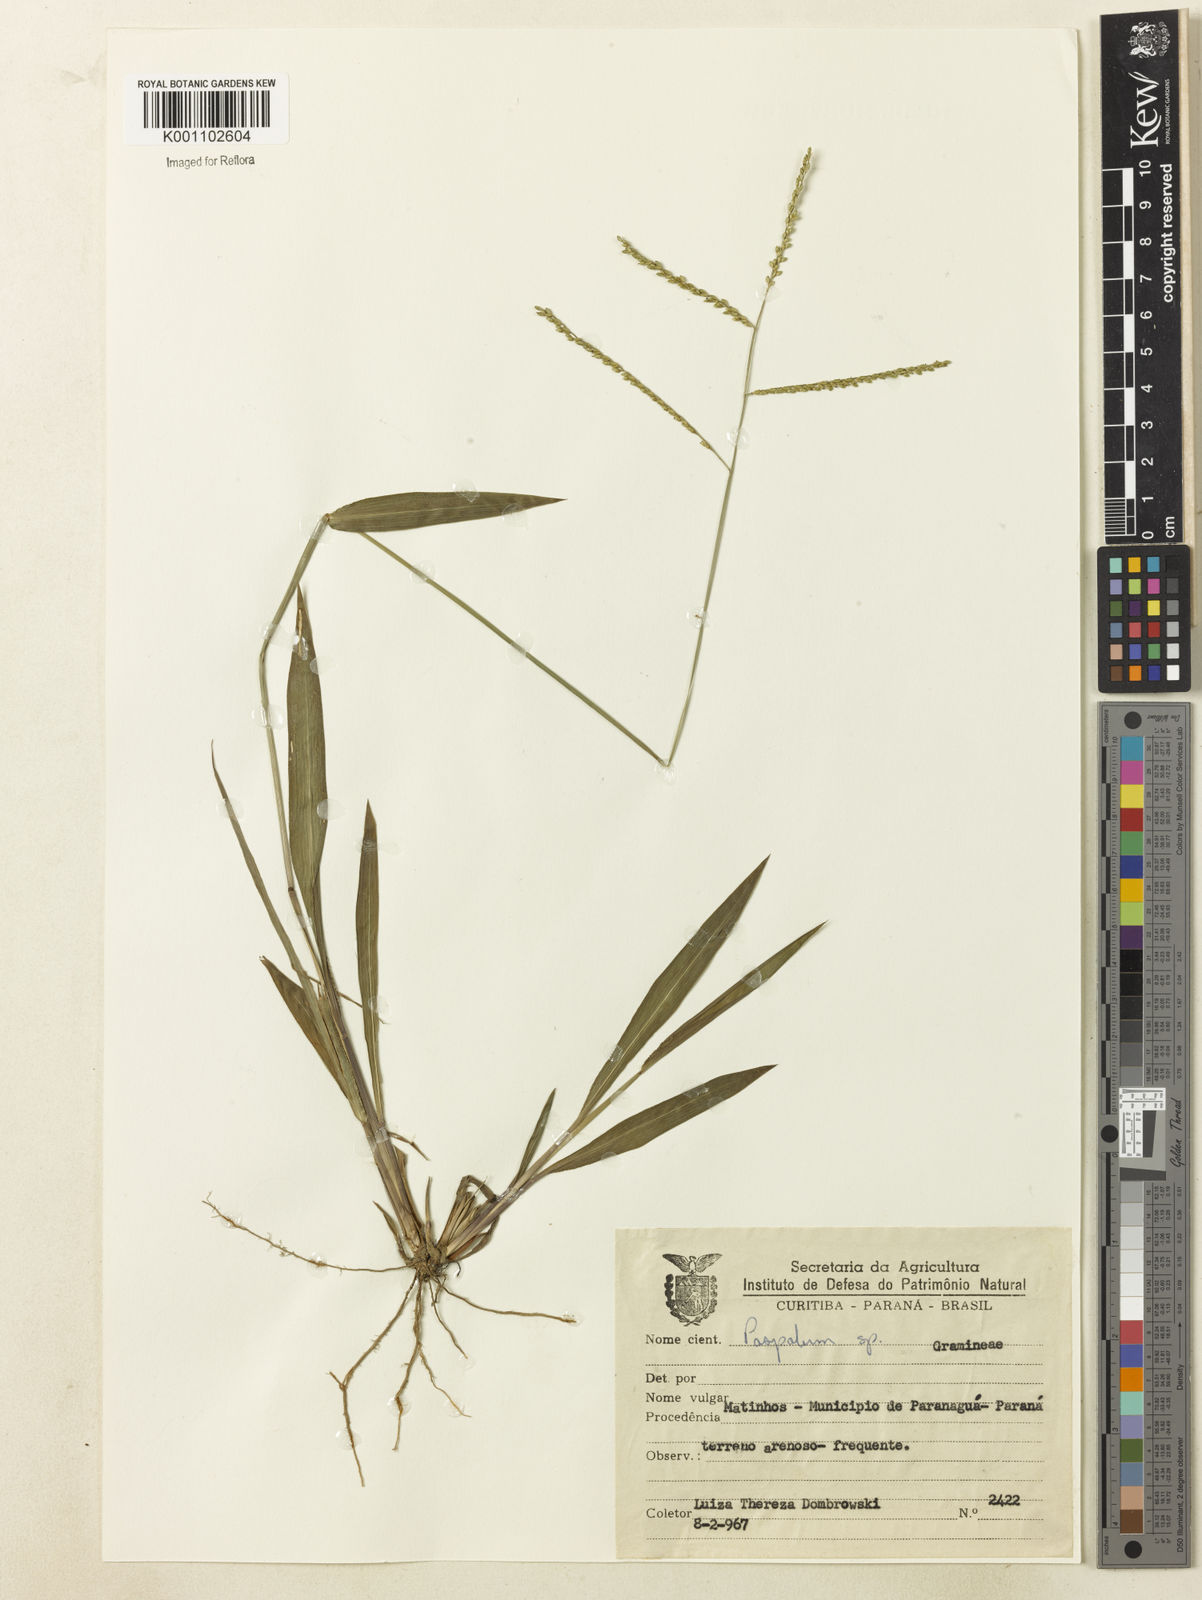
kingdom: Plantae
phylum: Tracheophyta
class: Liliopsida
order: Poales
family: Poaceae
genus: Paspalum
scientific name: Paspalum molle
